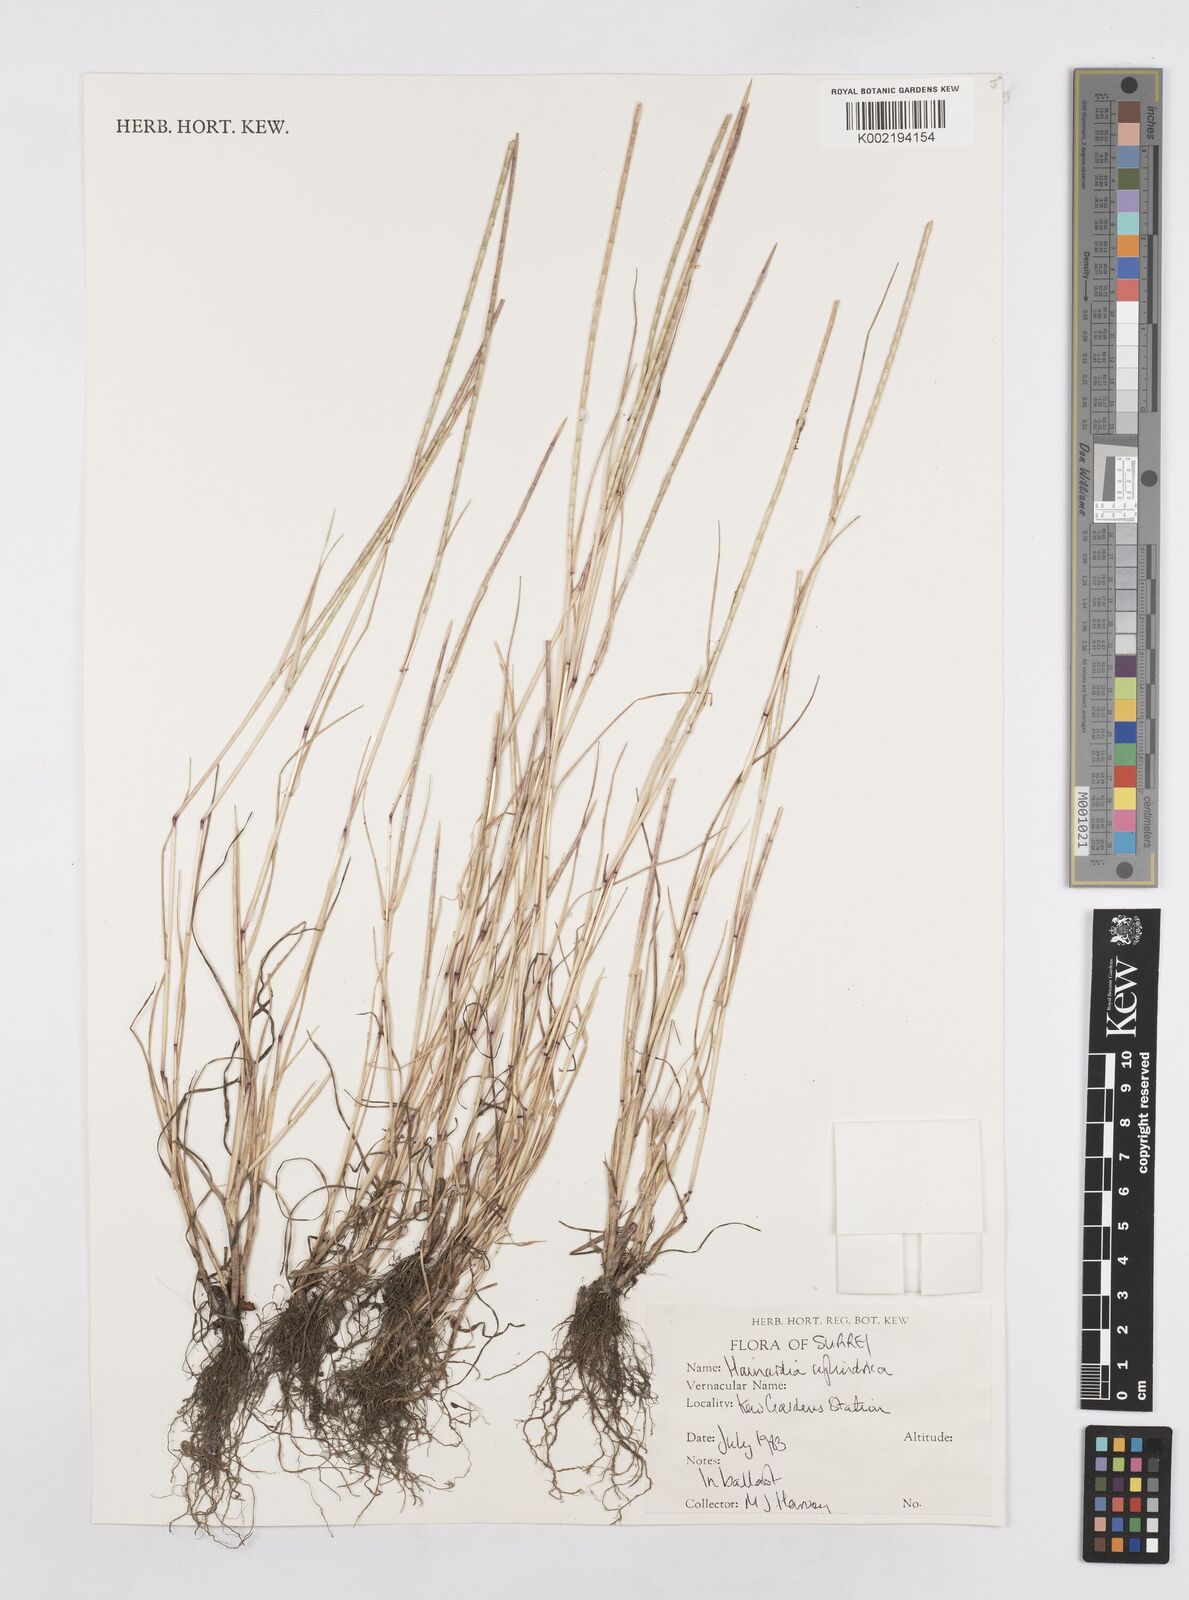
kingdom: Plantae
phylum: Tracheophyta
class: Liliopsida
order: Poales
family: Poaceae
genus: Parapholis
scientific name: Parapholis cylindrica
